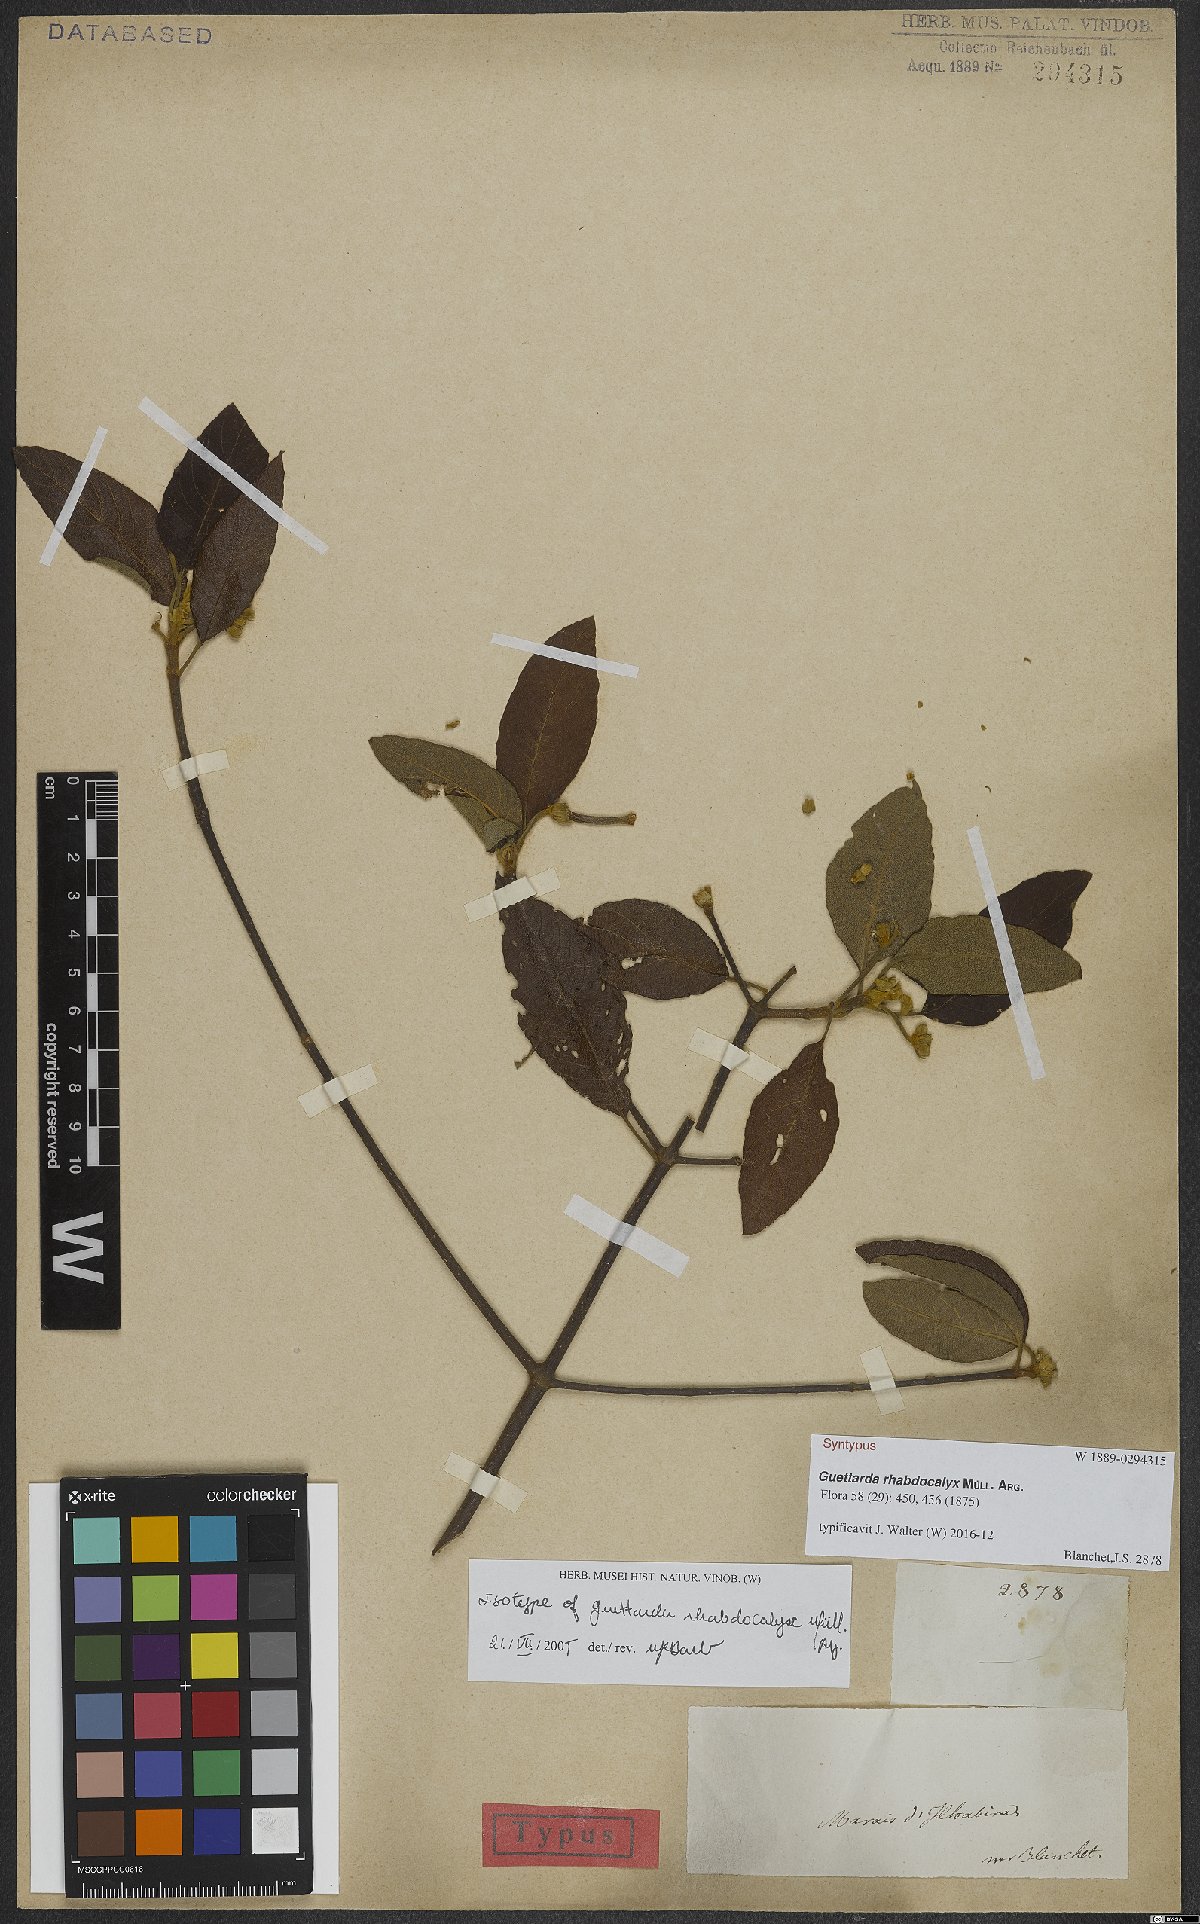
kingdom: Plantae
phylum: Tracheophyta
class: Magnoliopsida
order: Gentianales
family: Rubiaceae
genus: Guettarda
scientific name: Guettarda rhabdocalyx
